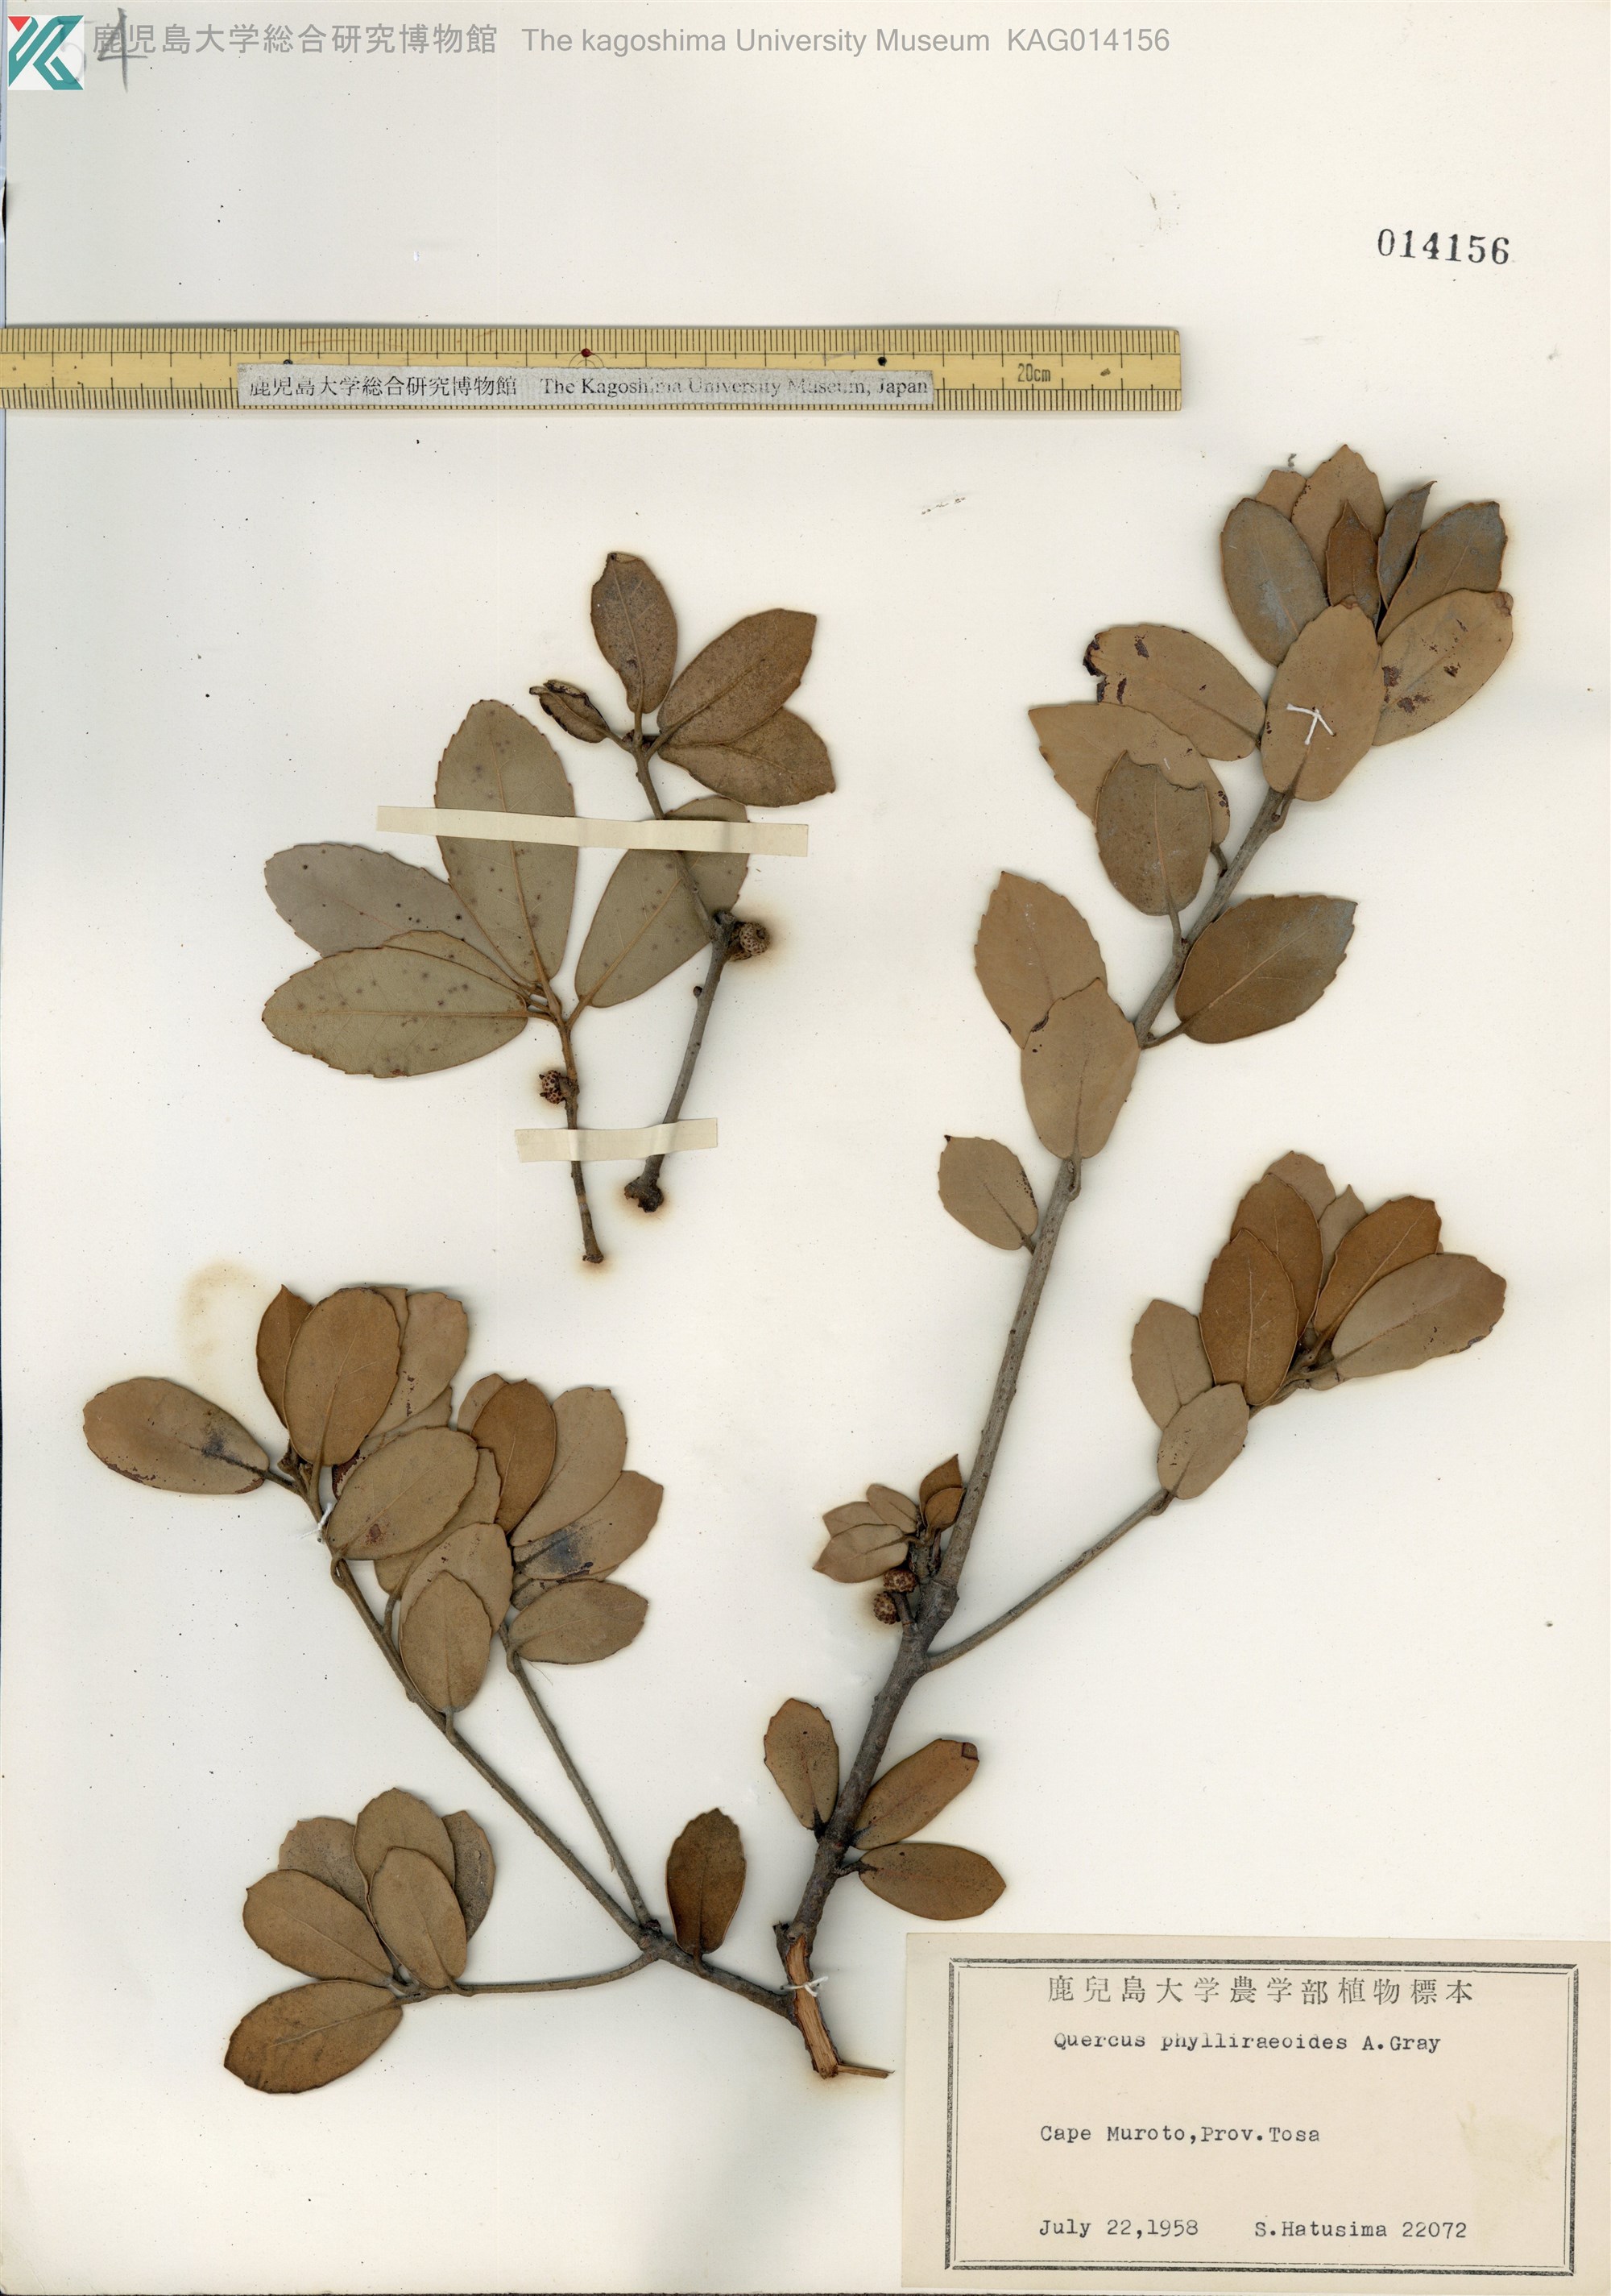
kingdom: Plantae
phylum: Tracheophyta
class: Magnoliopsida
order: Fagales
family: Fagaceae
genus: Quercus
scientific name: Quercus phillyraeoides
